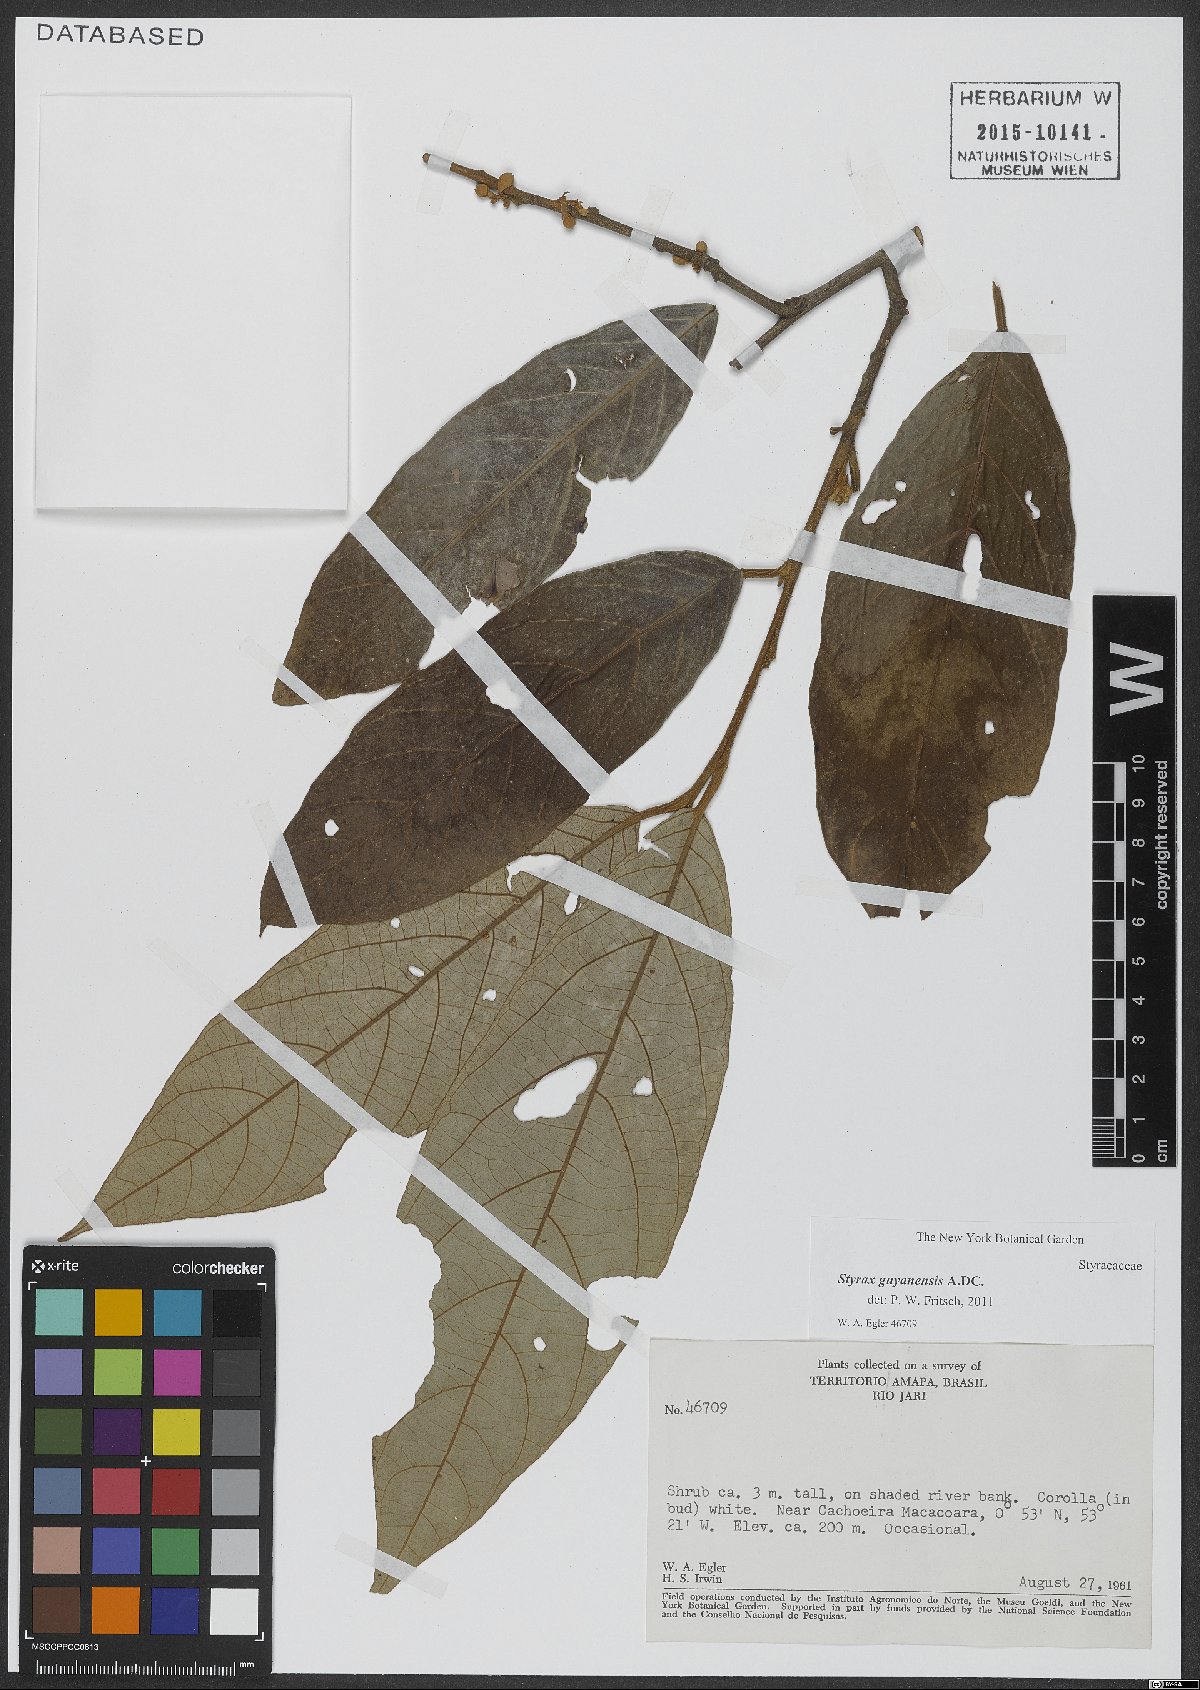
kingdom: Plantae
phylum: Tracheophyta
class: Magnoliopsida
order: Ericales
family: Styracaceae
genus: Styrax
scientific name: Styrax guyanensis
